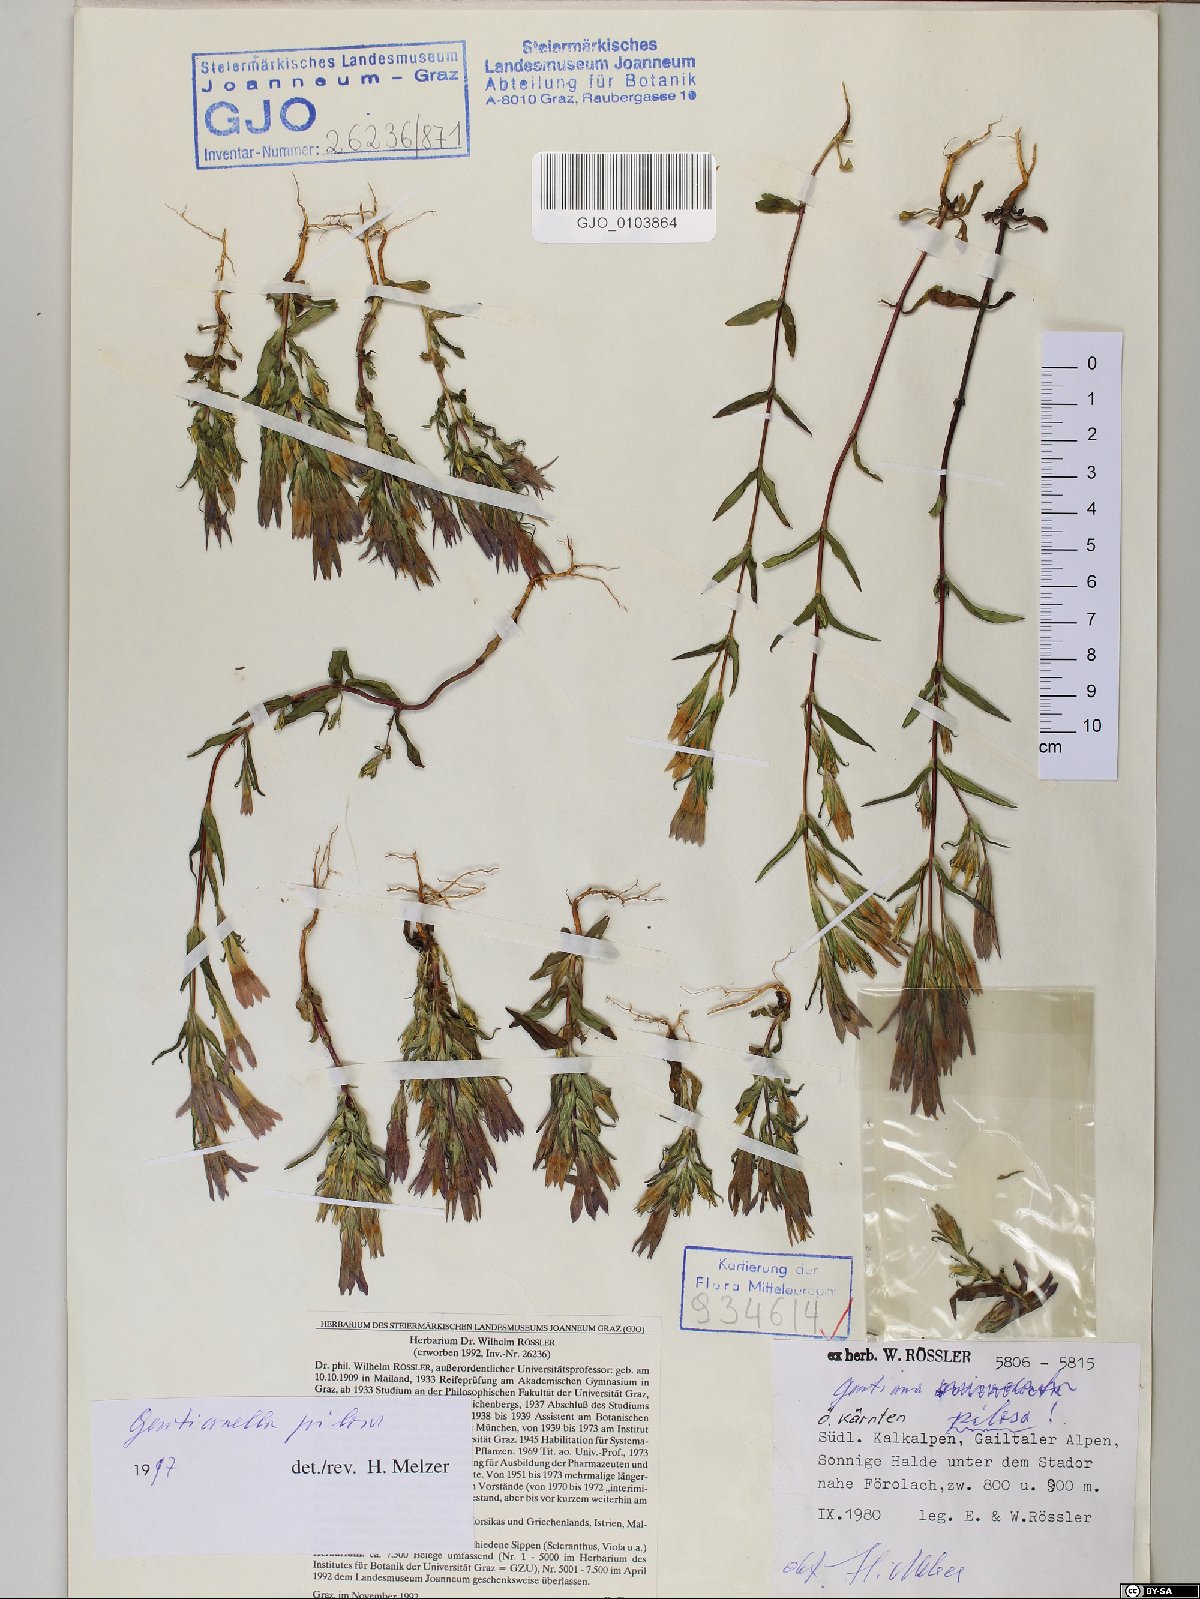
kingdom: Plantae
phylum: Tracheophyta
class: Magnoliopsida
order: Gentianales
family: Gentianaceae
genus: Gentianella
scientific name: Gentianella pilosa
